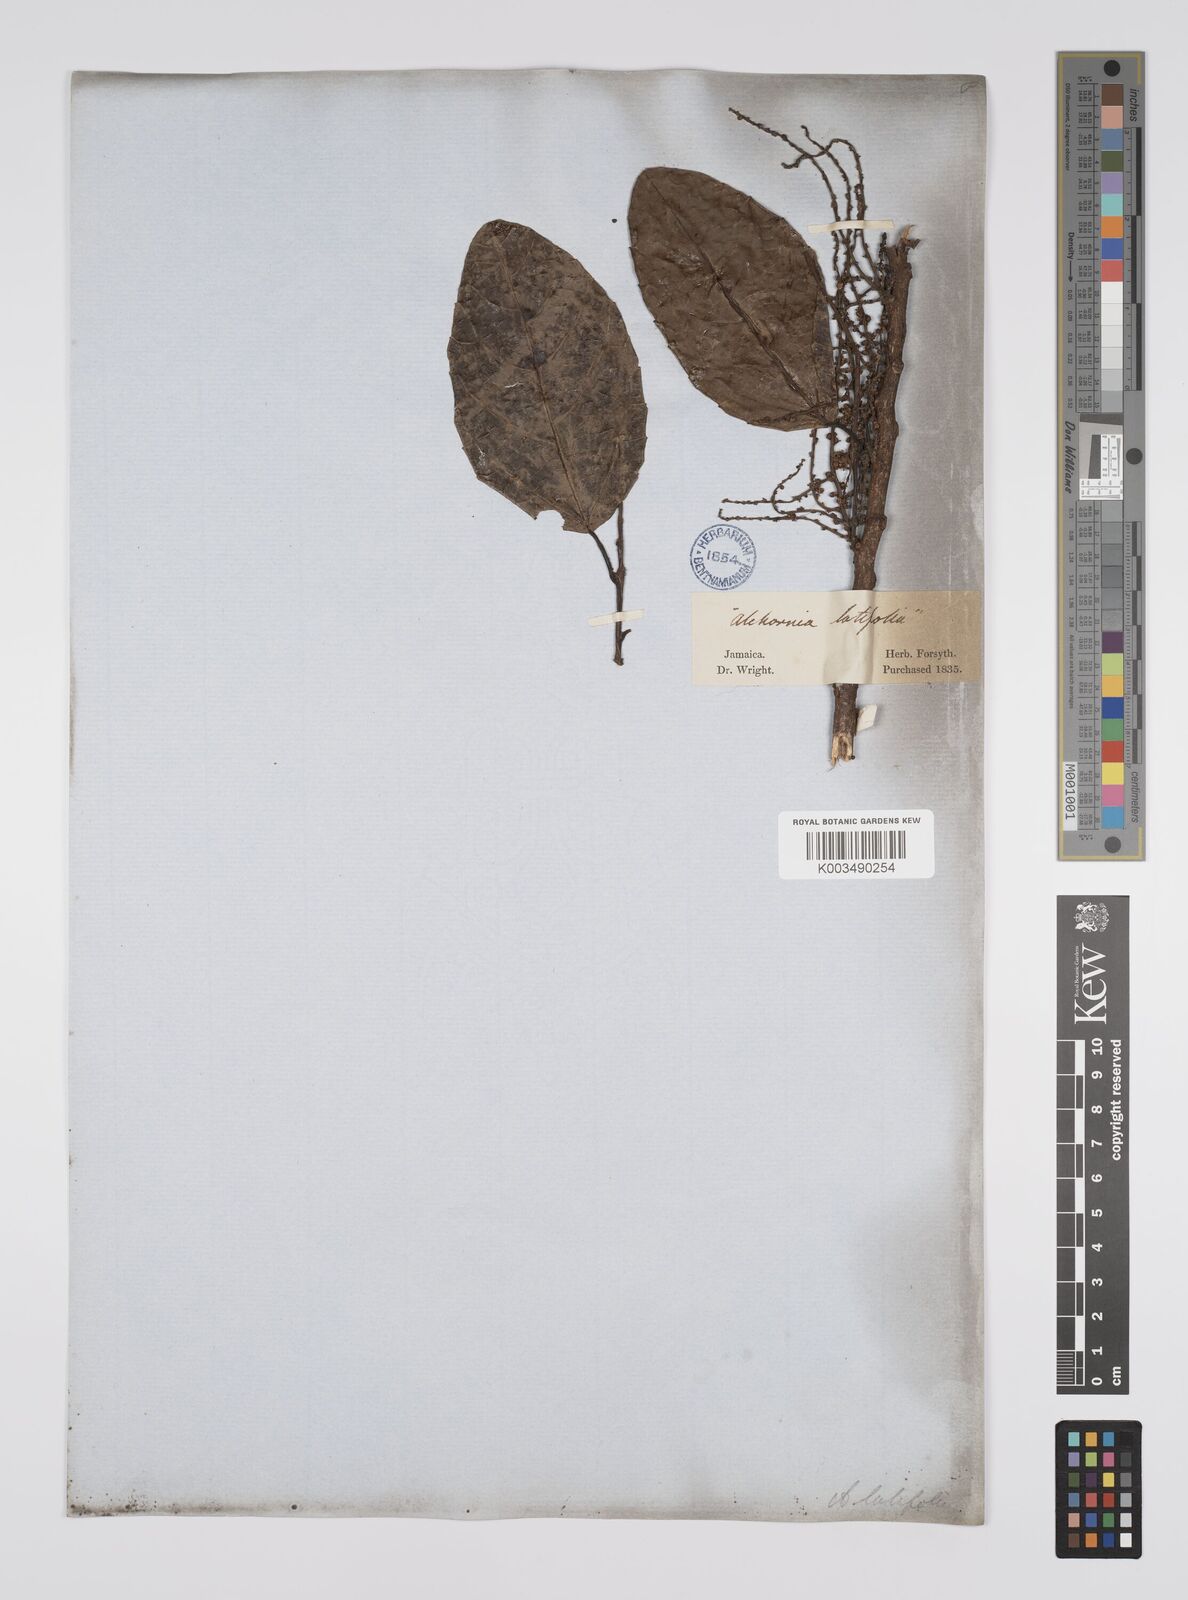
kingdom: Plantae
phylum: Tracheophyta
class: Magnoliopsida
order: Malpighiales
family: Euphorbiaceae
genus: Alchornea
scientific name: Alchornea latifolia
